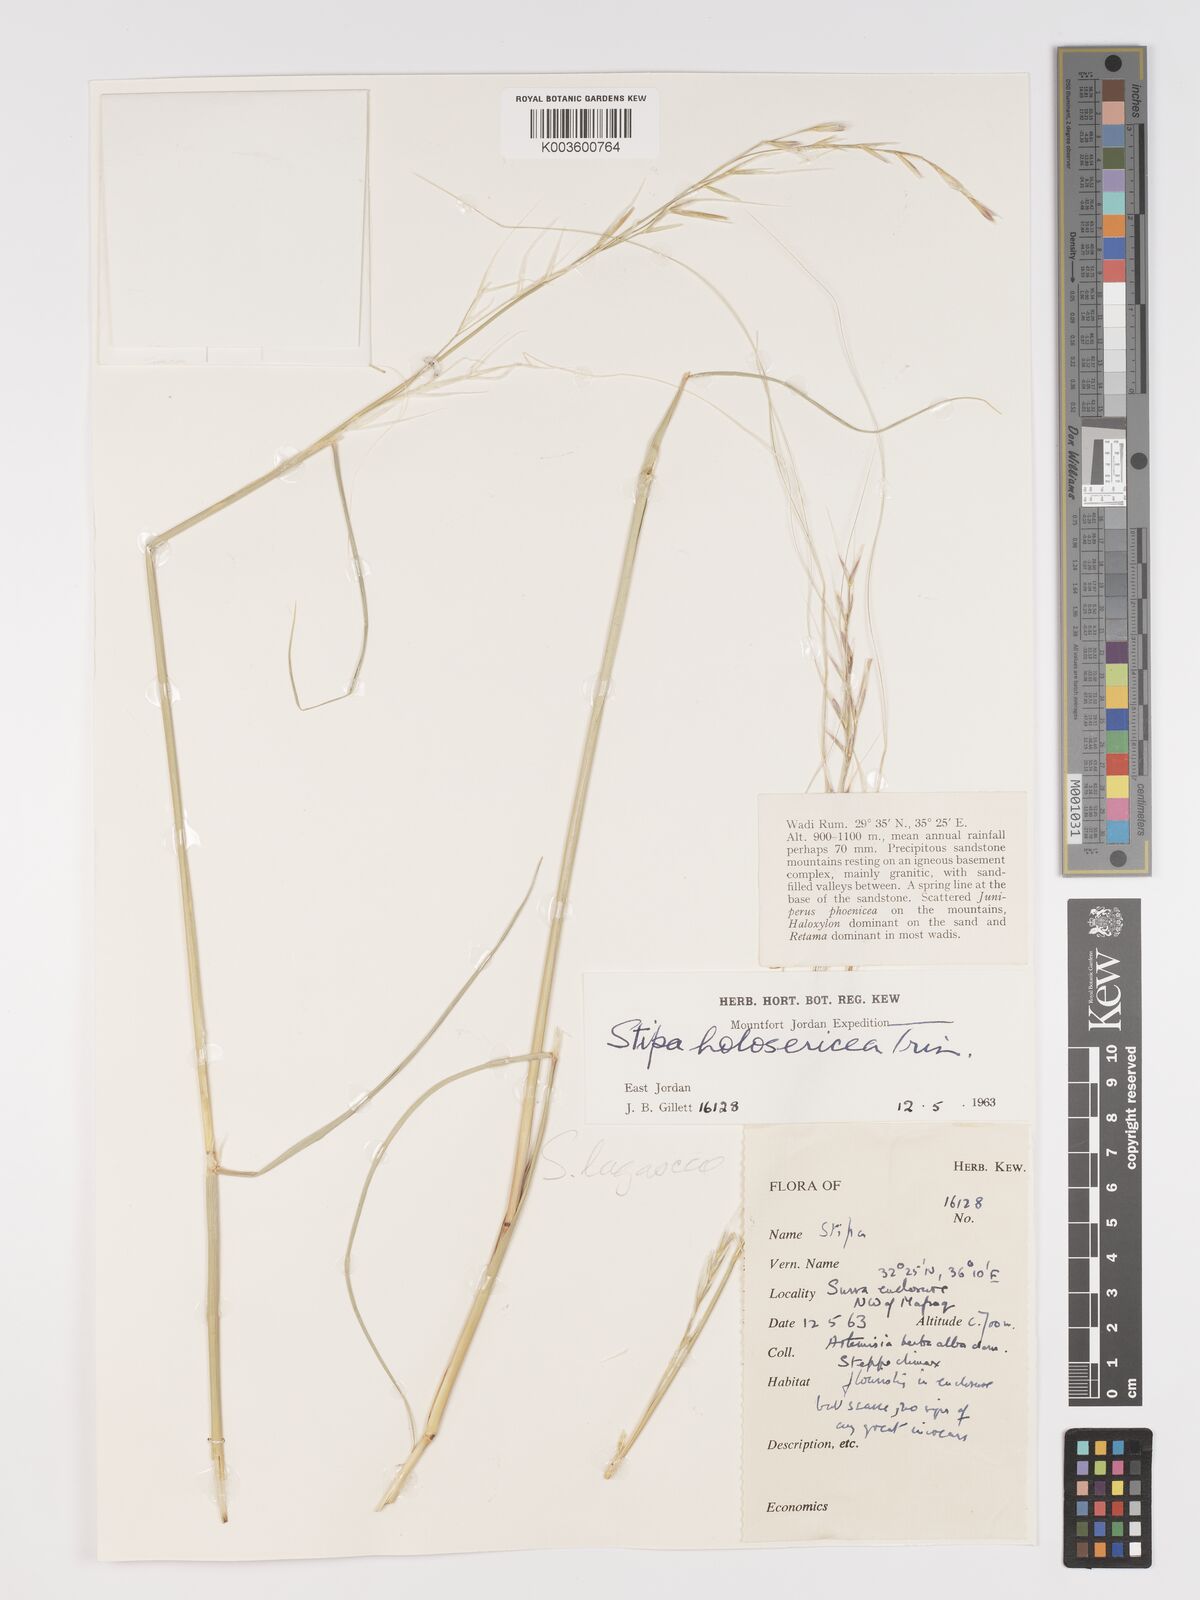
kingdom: Plantae
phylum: Tracheophyta
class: Liliopsida
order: Poales
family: Poaceae
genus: Stipa
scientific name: Stipa lagascae
